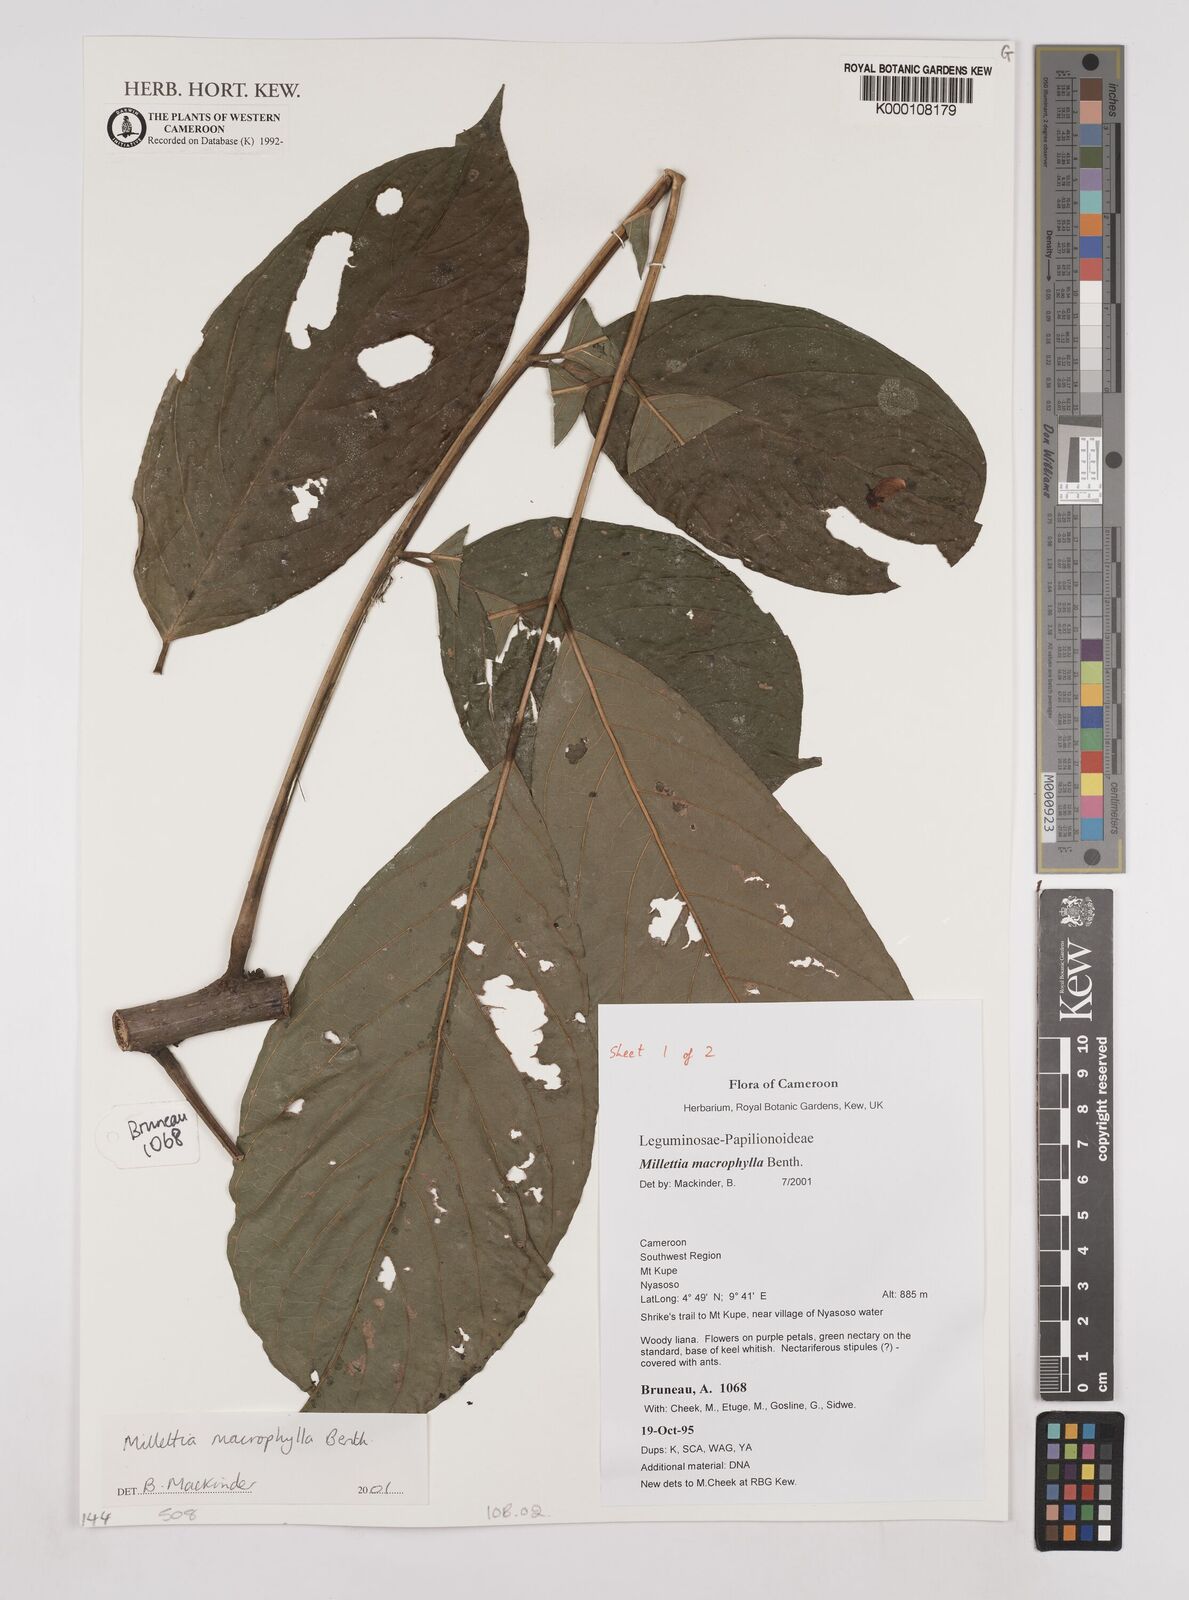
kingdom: Plantae
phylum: Tracheophyta
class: Magnoliopsida
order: Fabales
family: Fabaceae
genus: Millettia
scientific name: Millettia macrophylla
